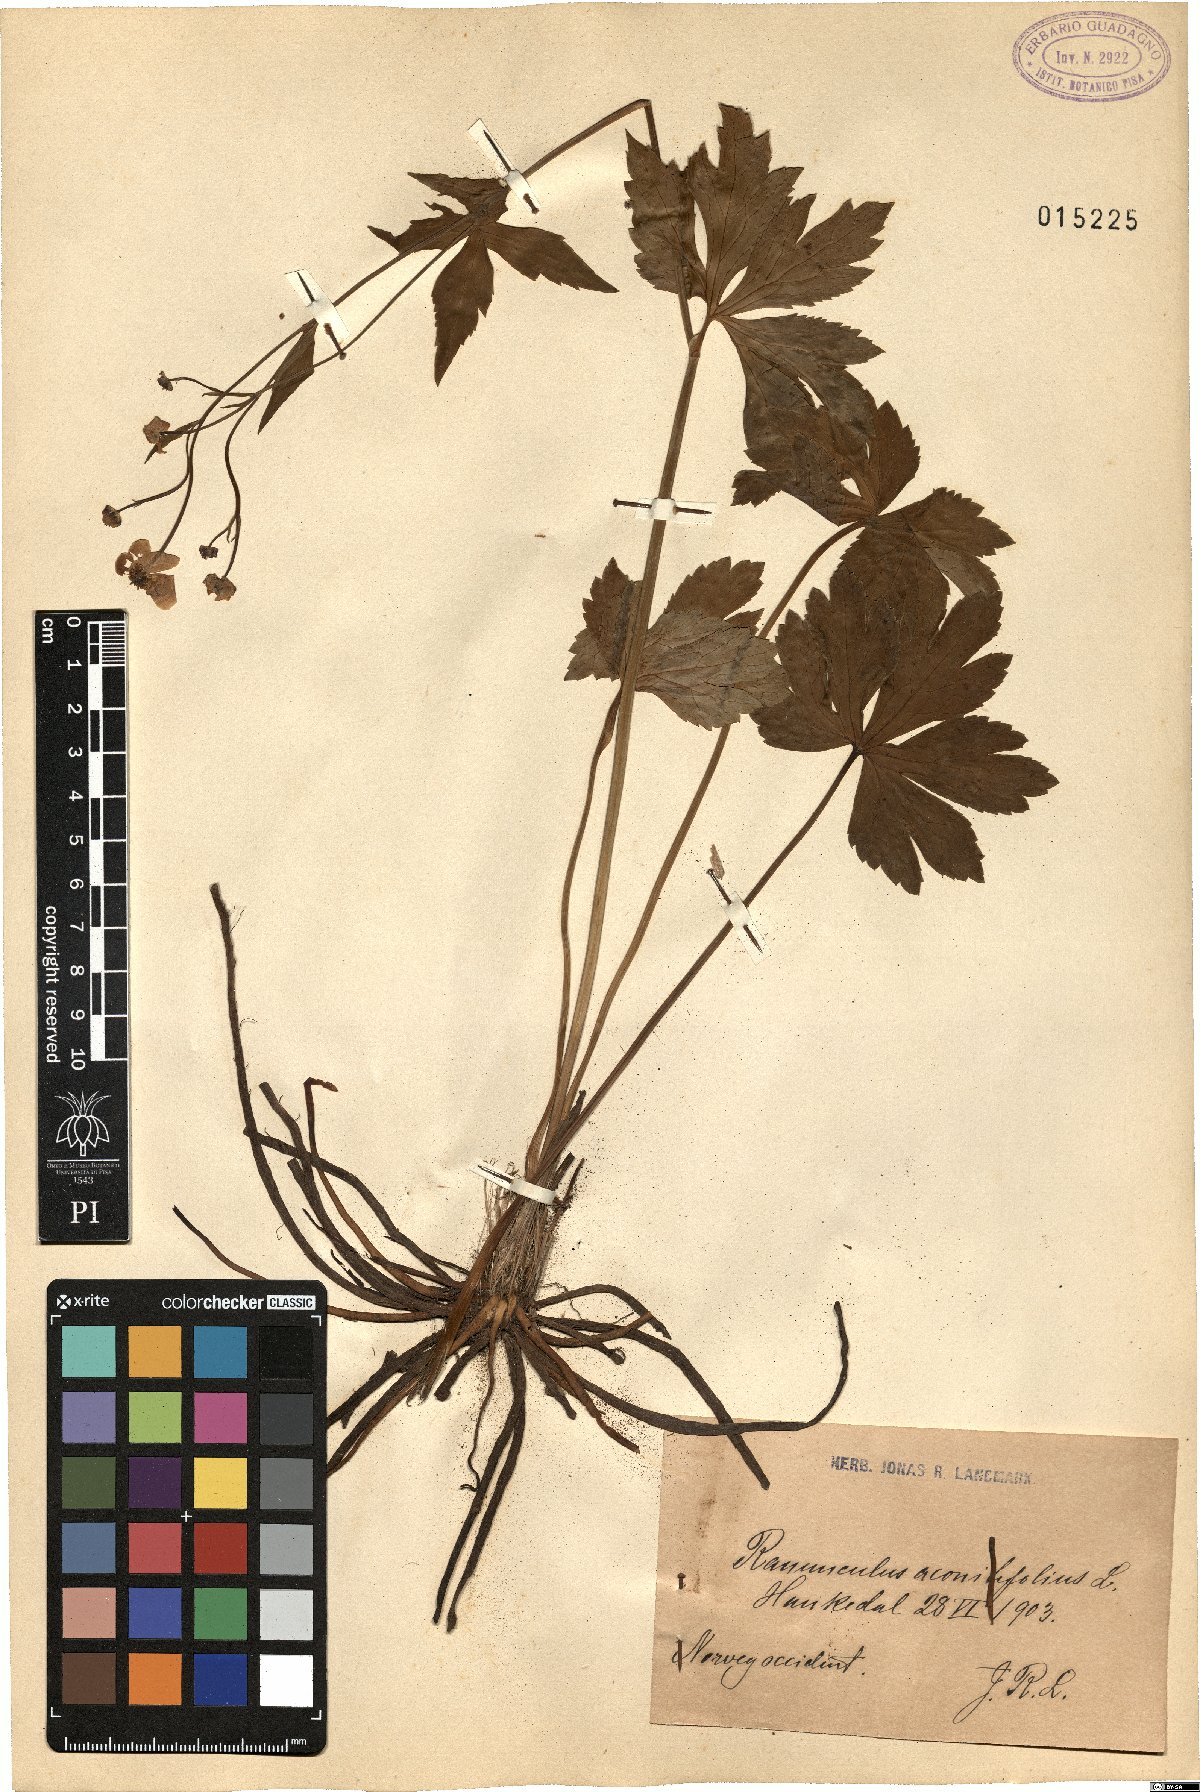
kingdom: Plantae
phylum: Tracheophyta
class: Magnoliopsida
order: Ranunculales
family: Ranunculaceae
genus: Ranunculus
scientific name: Ranunculus aconitifolius
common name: Aconite-leaved buttercup
